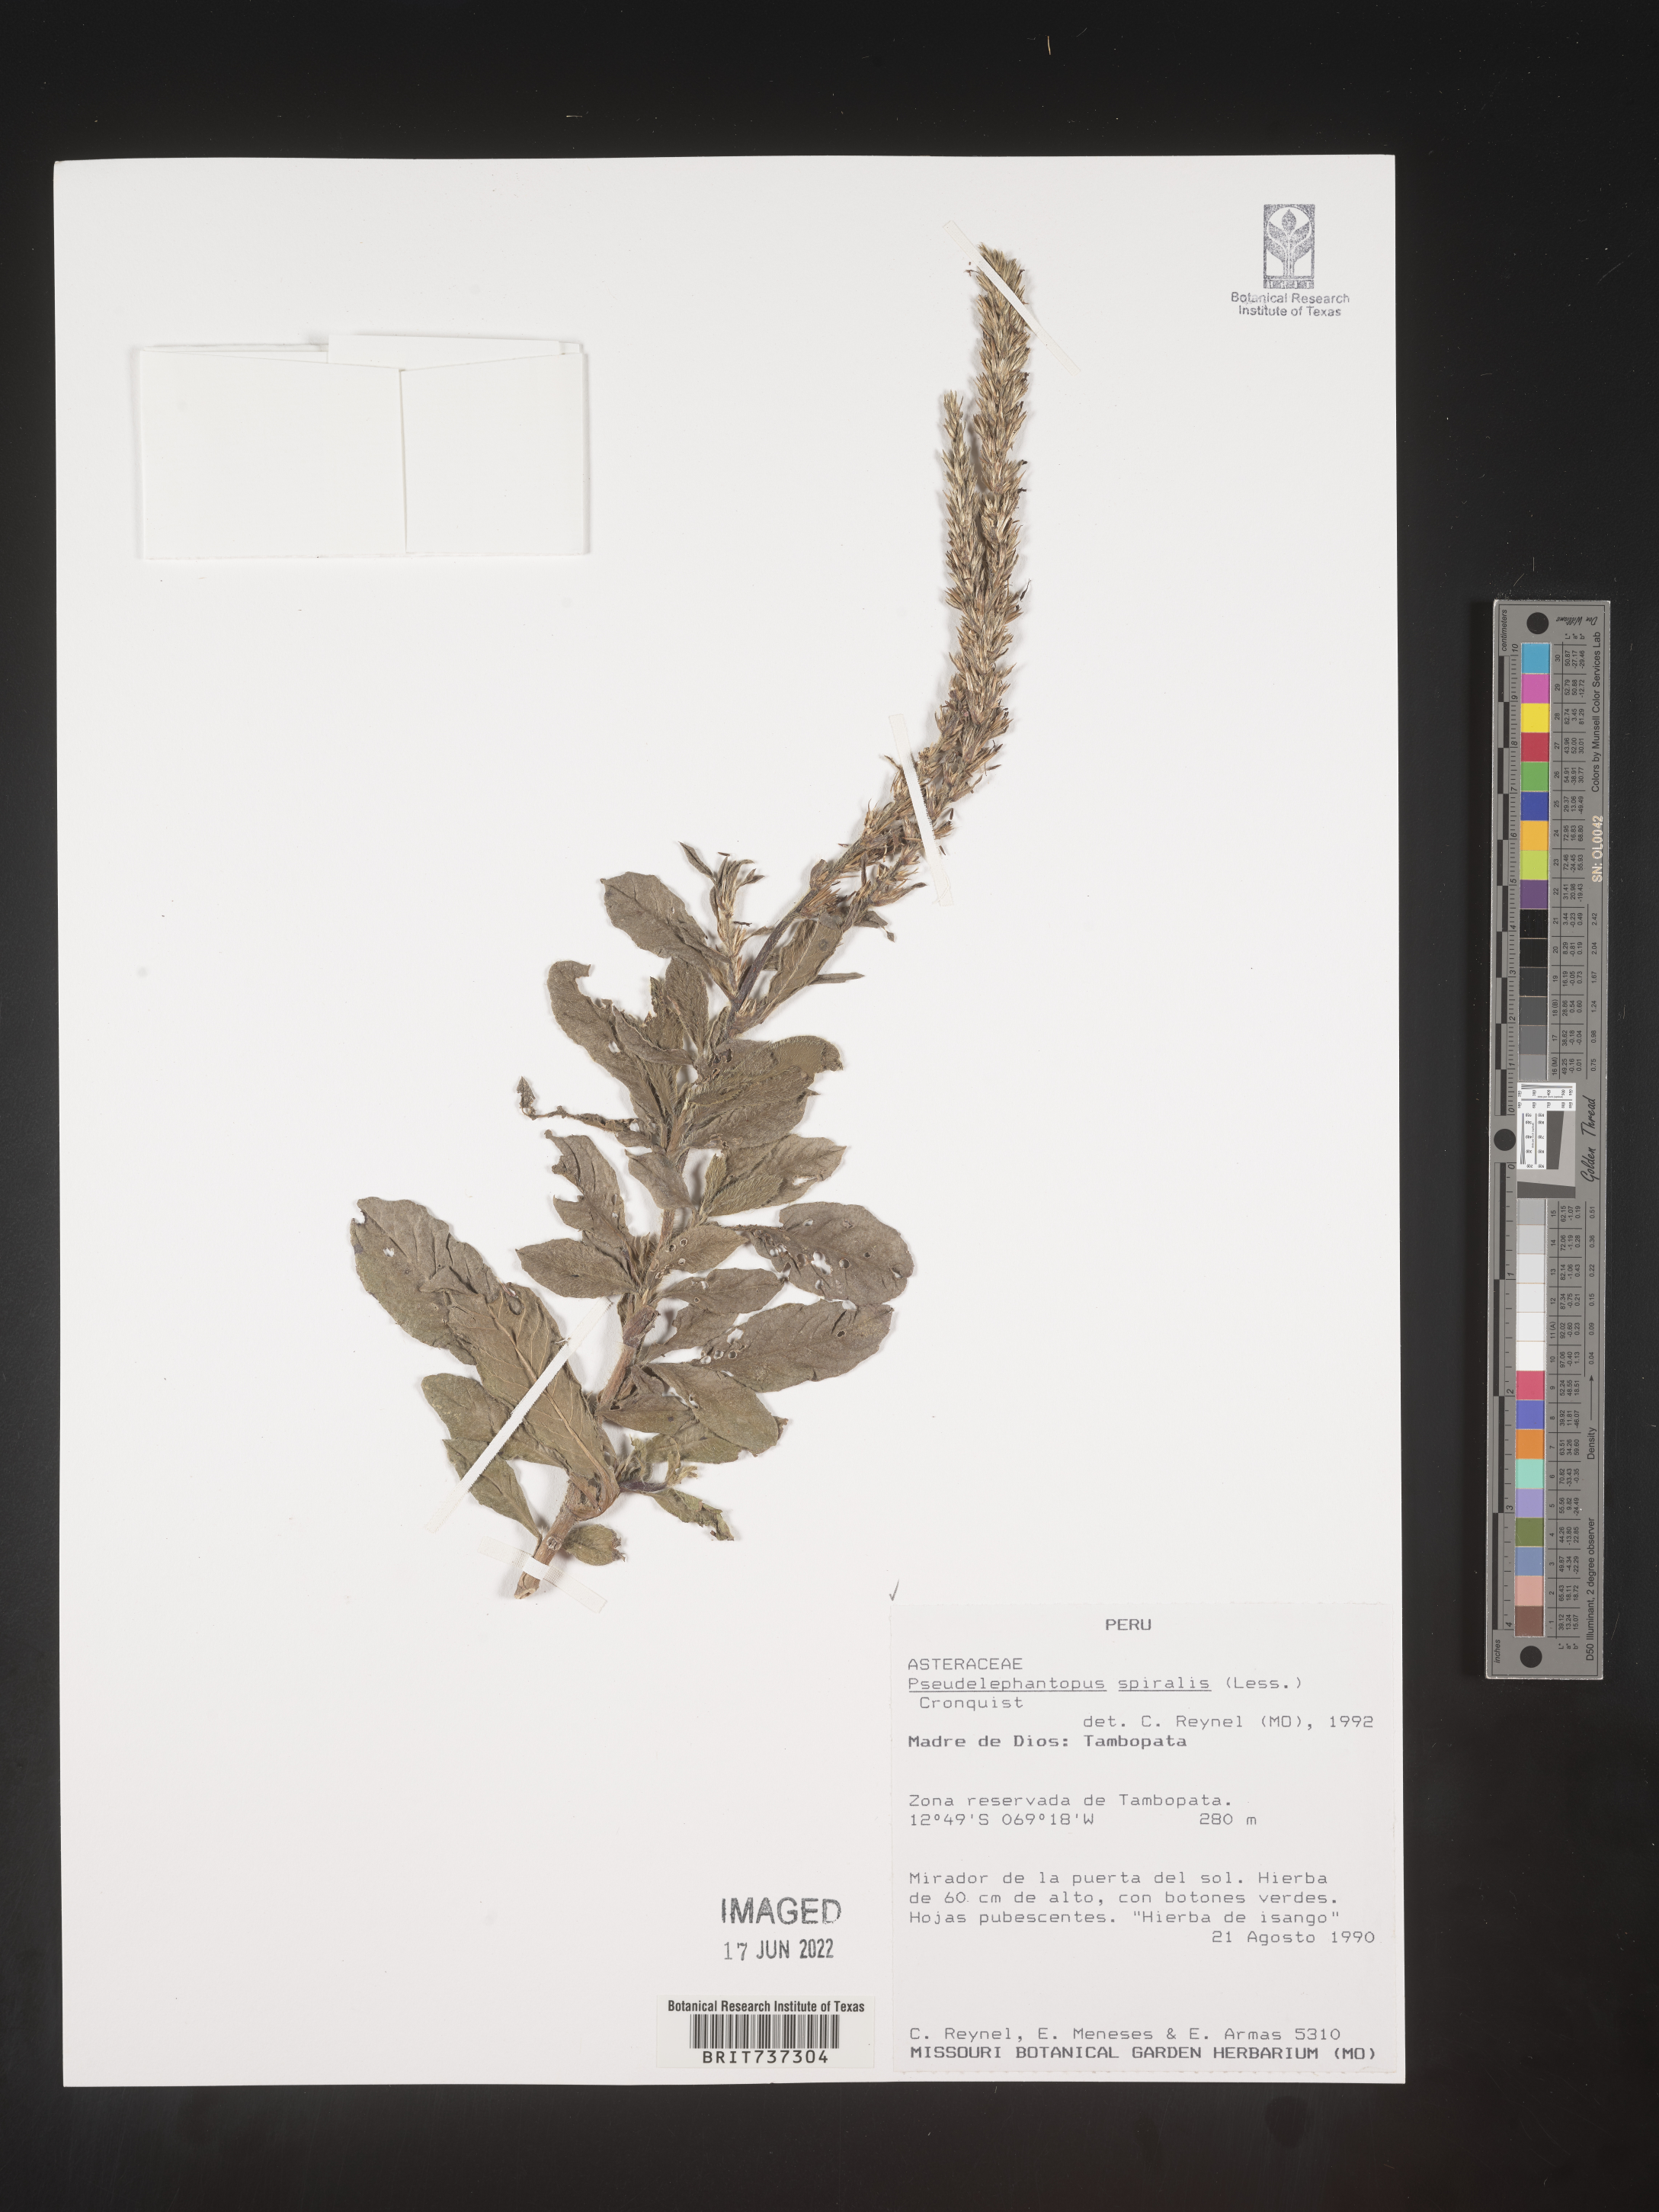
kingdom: Plantae
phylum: Tracheophyta
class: Magnoliopsida
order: Asterales
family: Asteraceae
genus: Pseudelephantopus
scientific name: Pseudelephantopus
